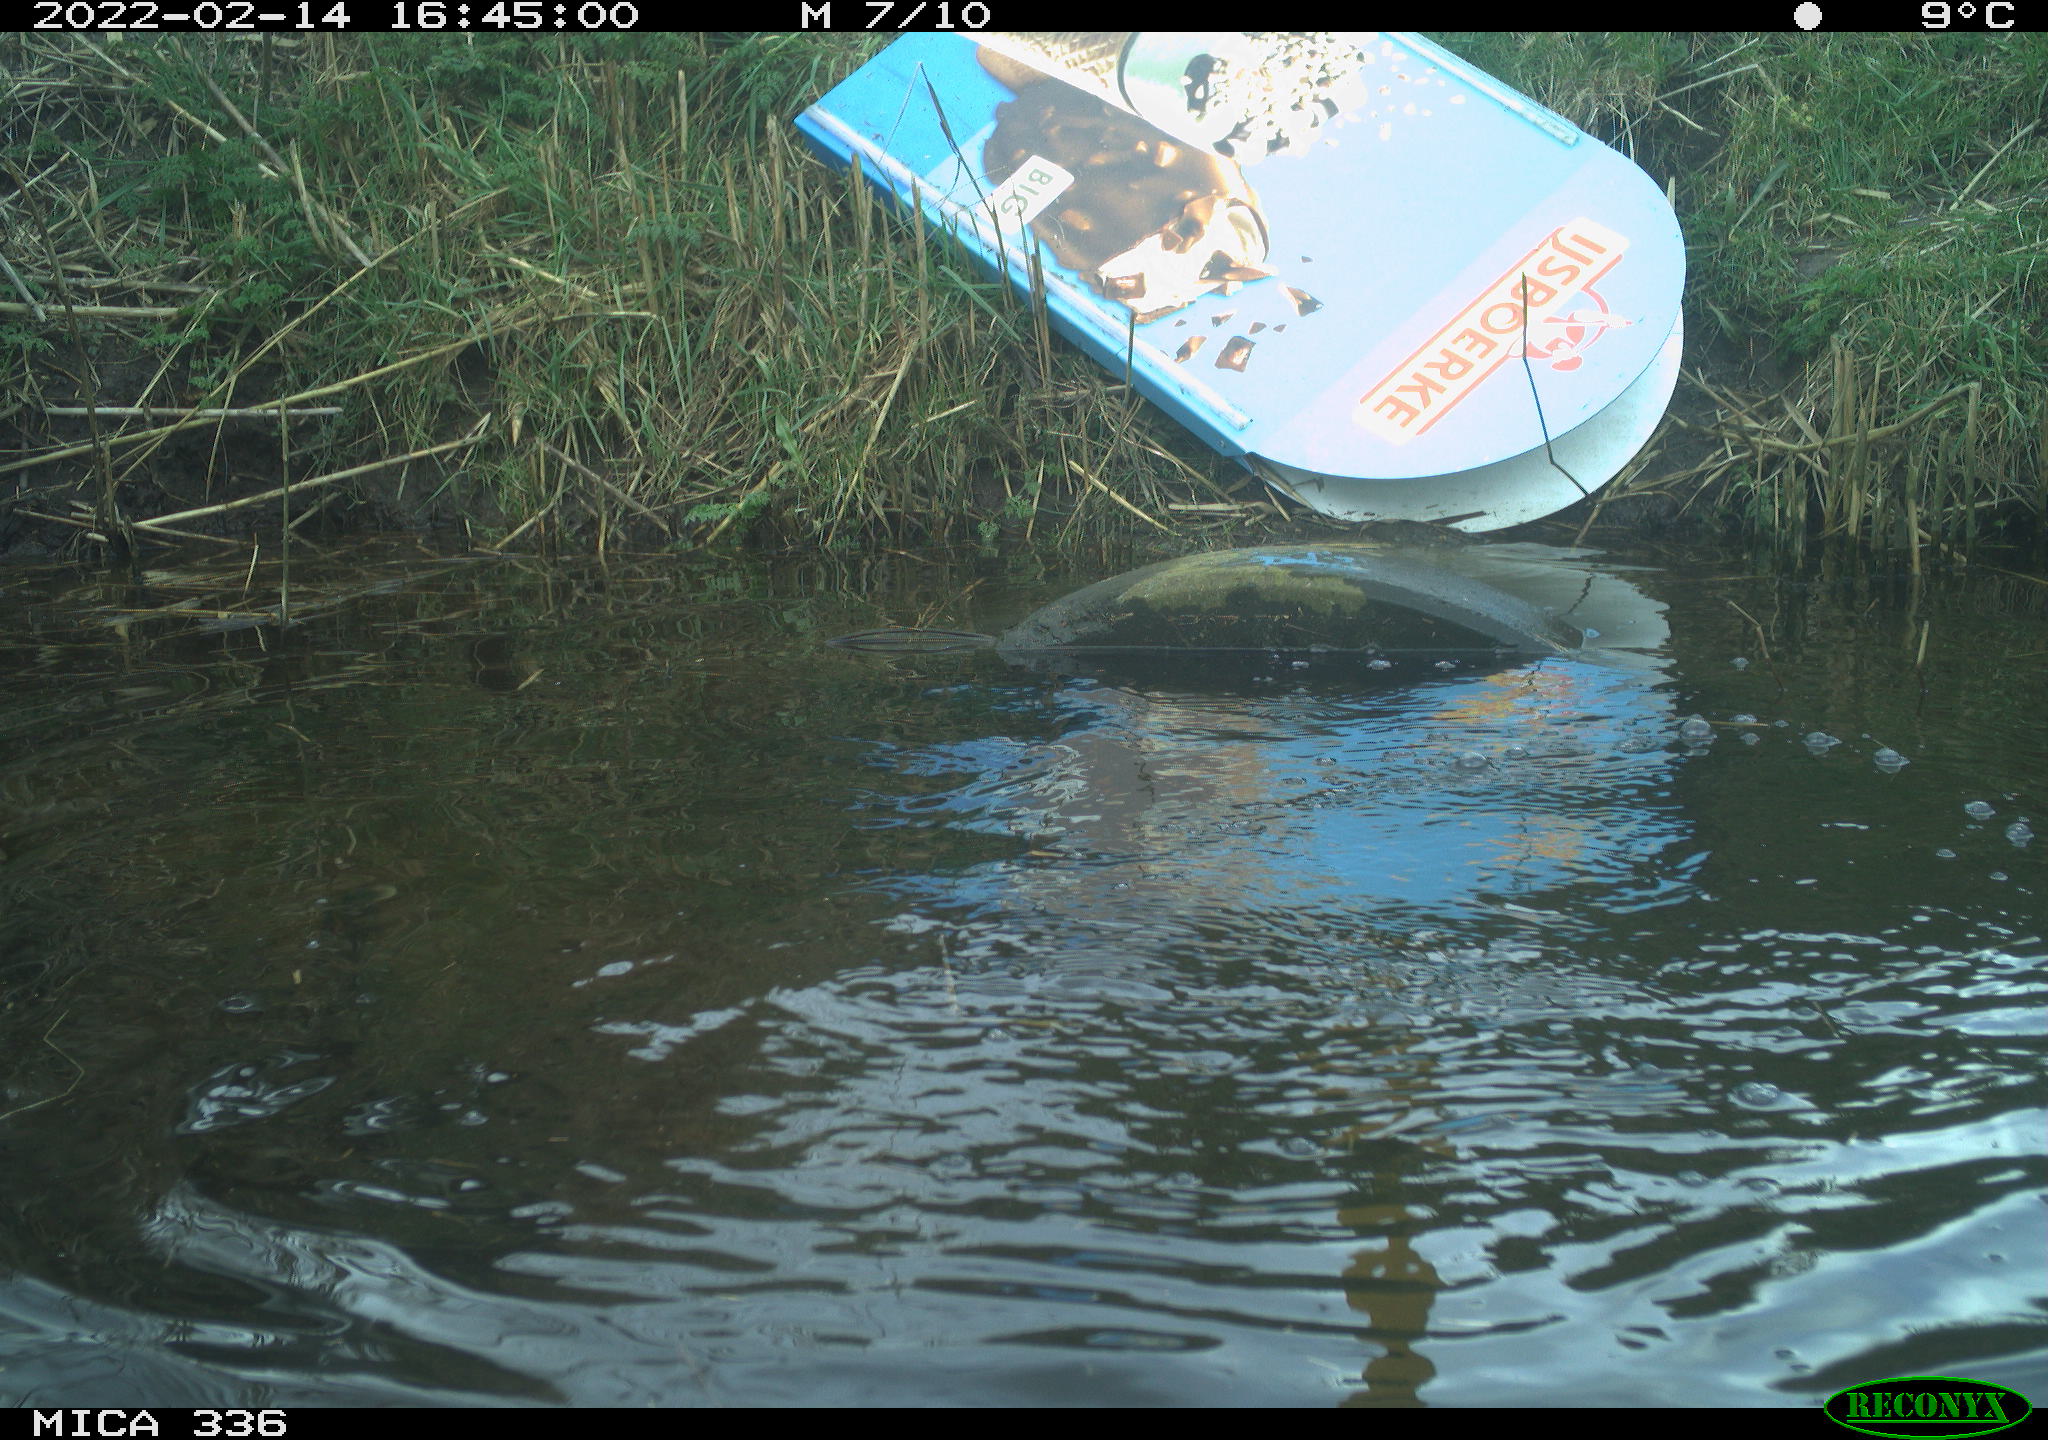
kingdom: Animalia
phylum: Chordata
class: Aves
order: Suliformes
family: Phalacrocoracidae
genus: Phalacrocorax
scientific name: Phalacrocorax carbo
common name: Great cormorant
